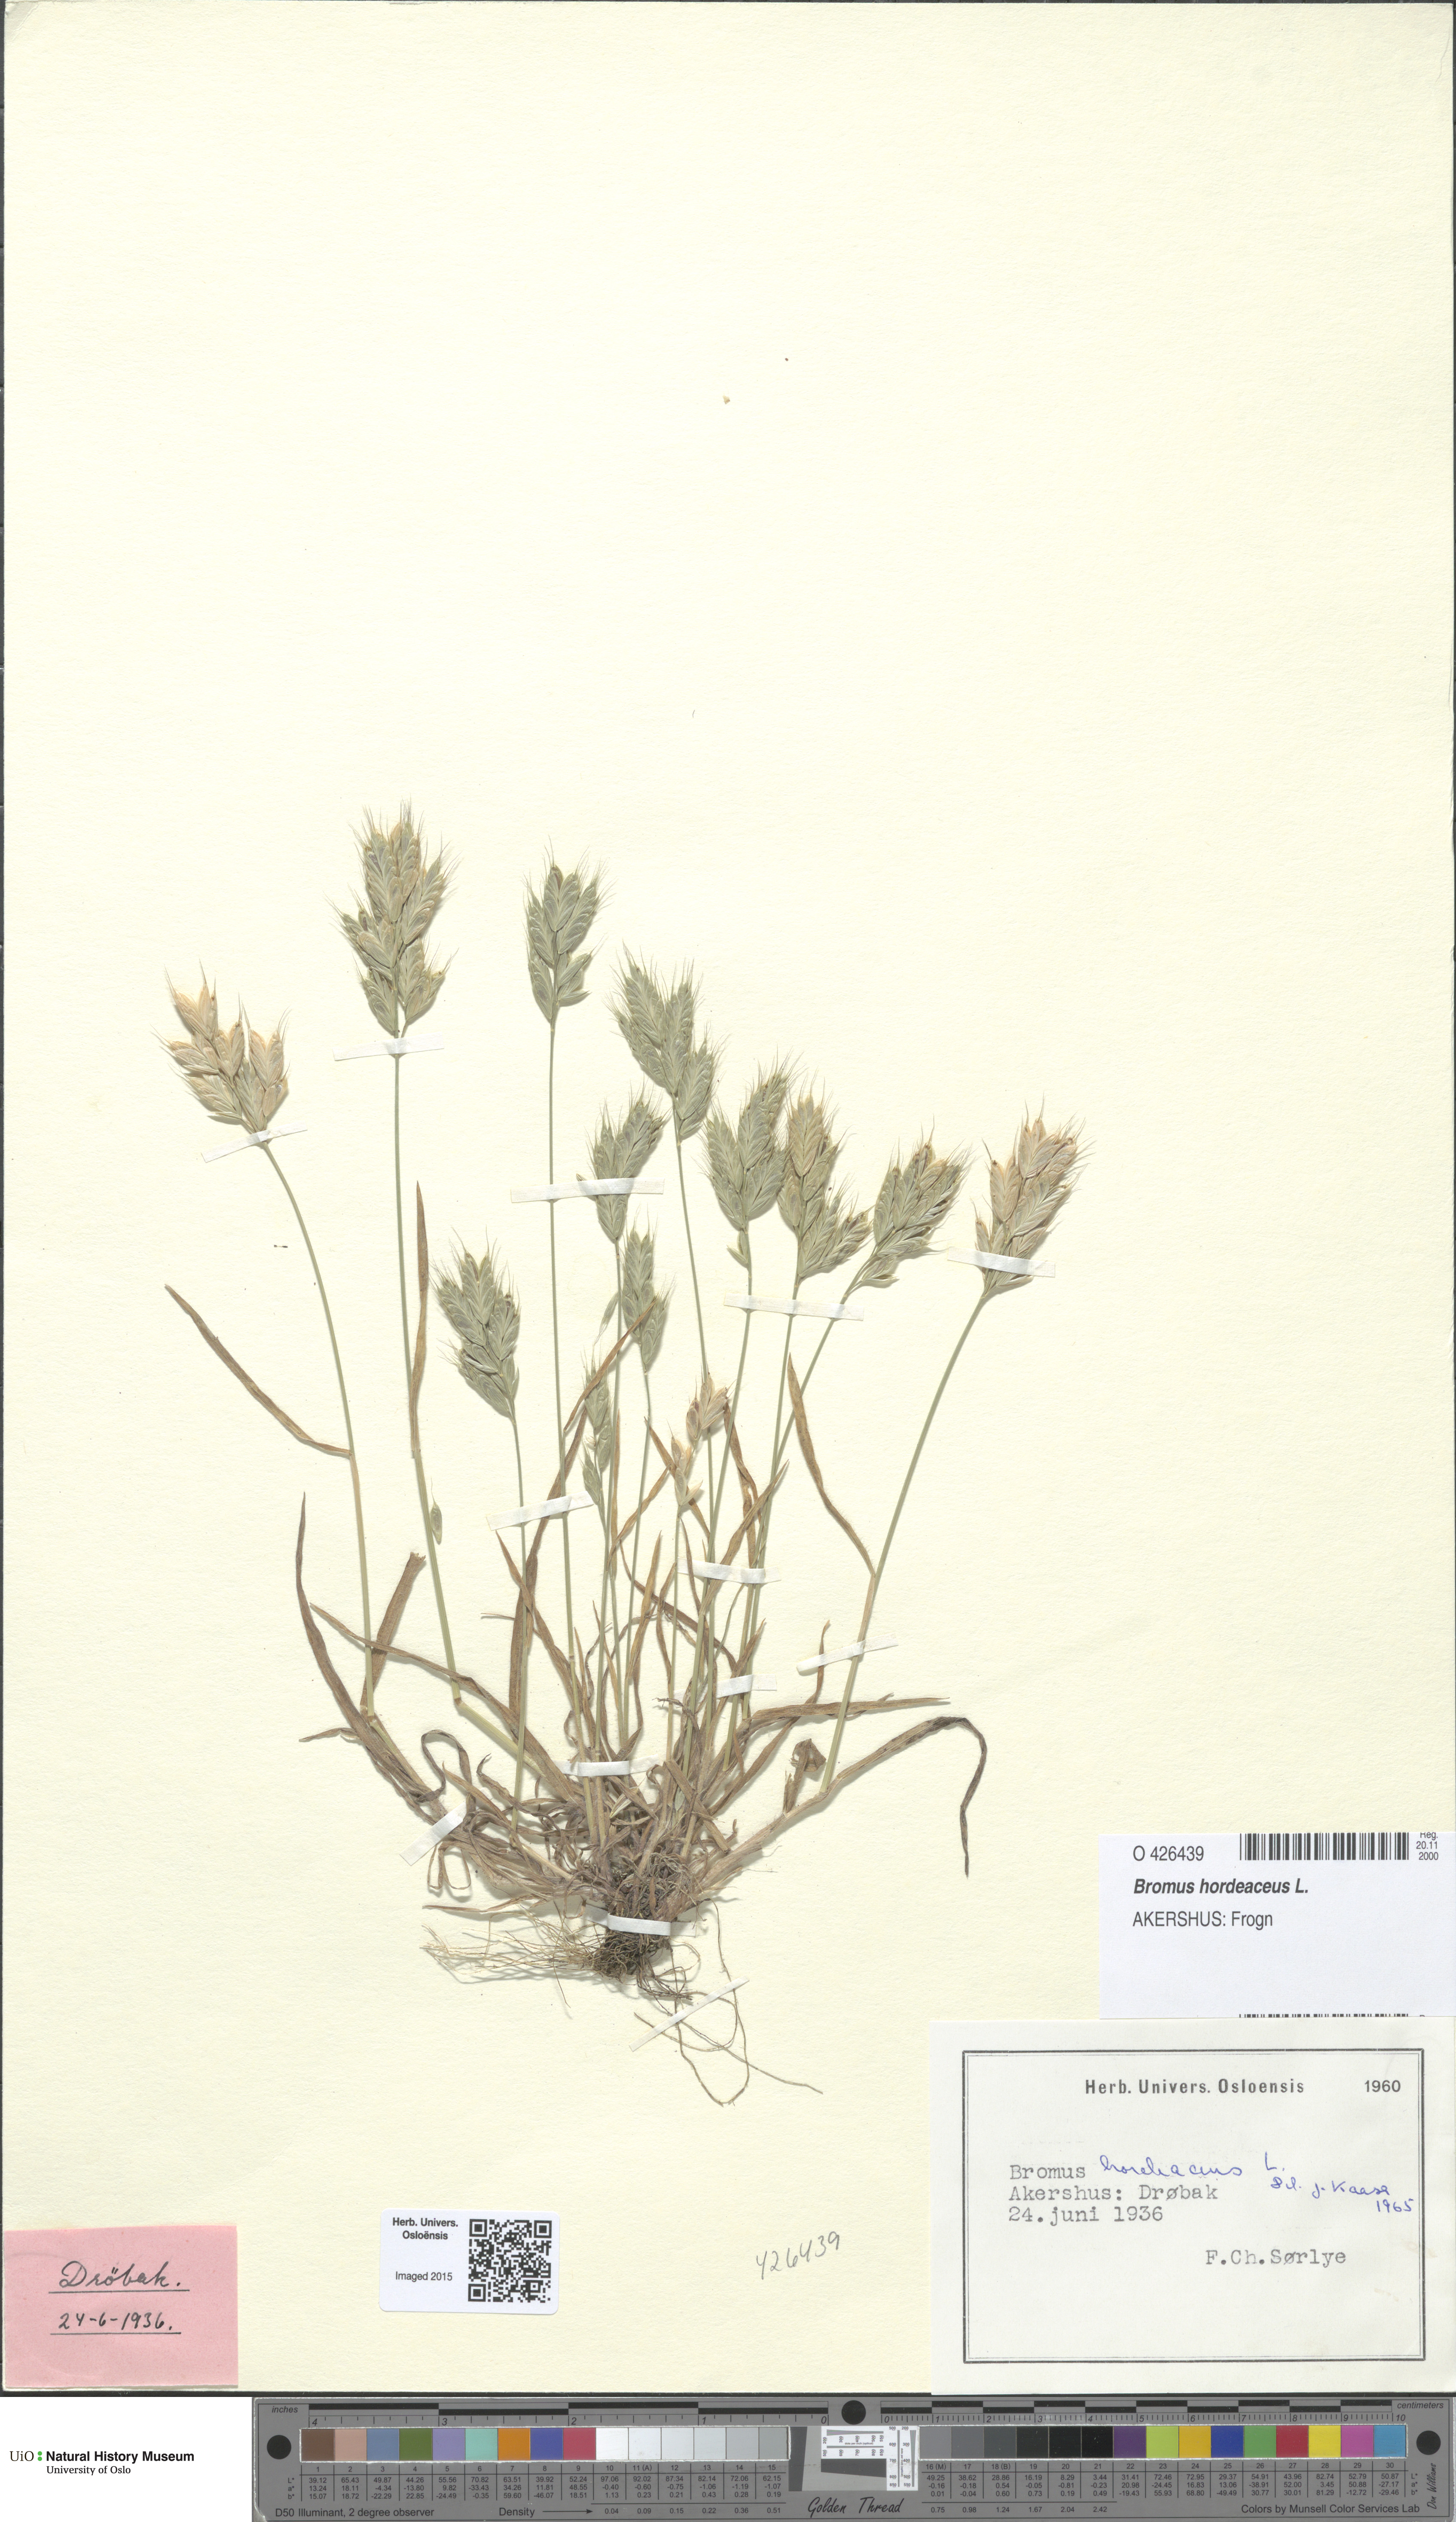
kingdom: Plantae
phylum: Tracheophyta
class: Liliopsida
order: Poales
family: Poaceae
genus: Bromus
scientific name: Bromus hordeaceus
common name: Soft brome
